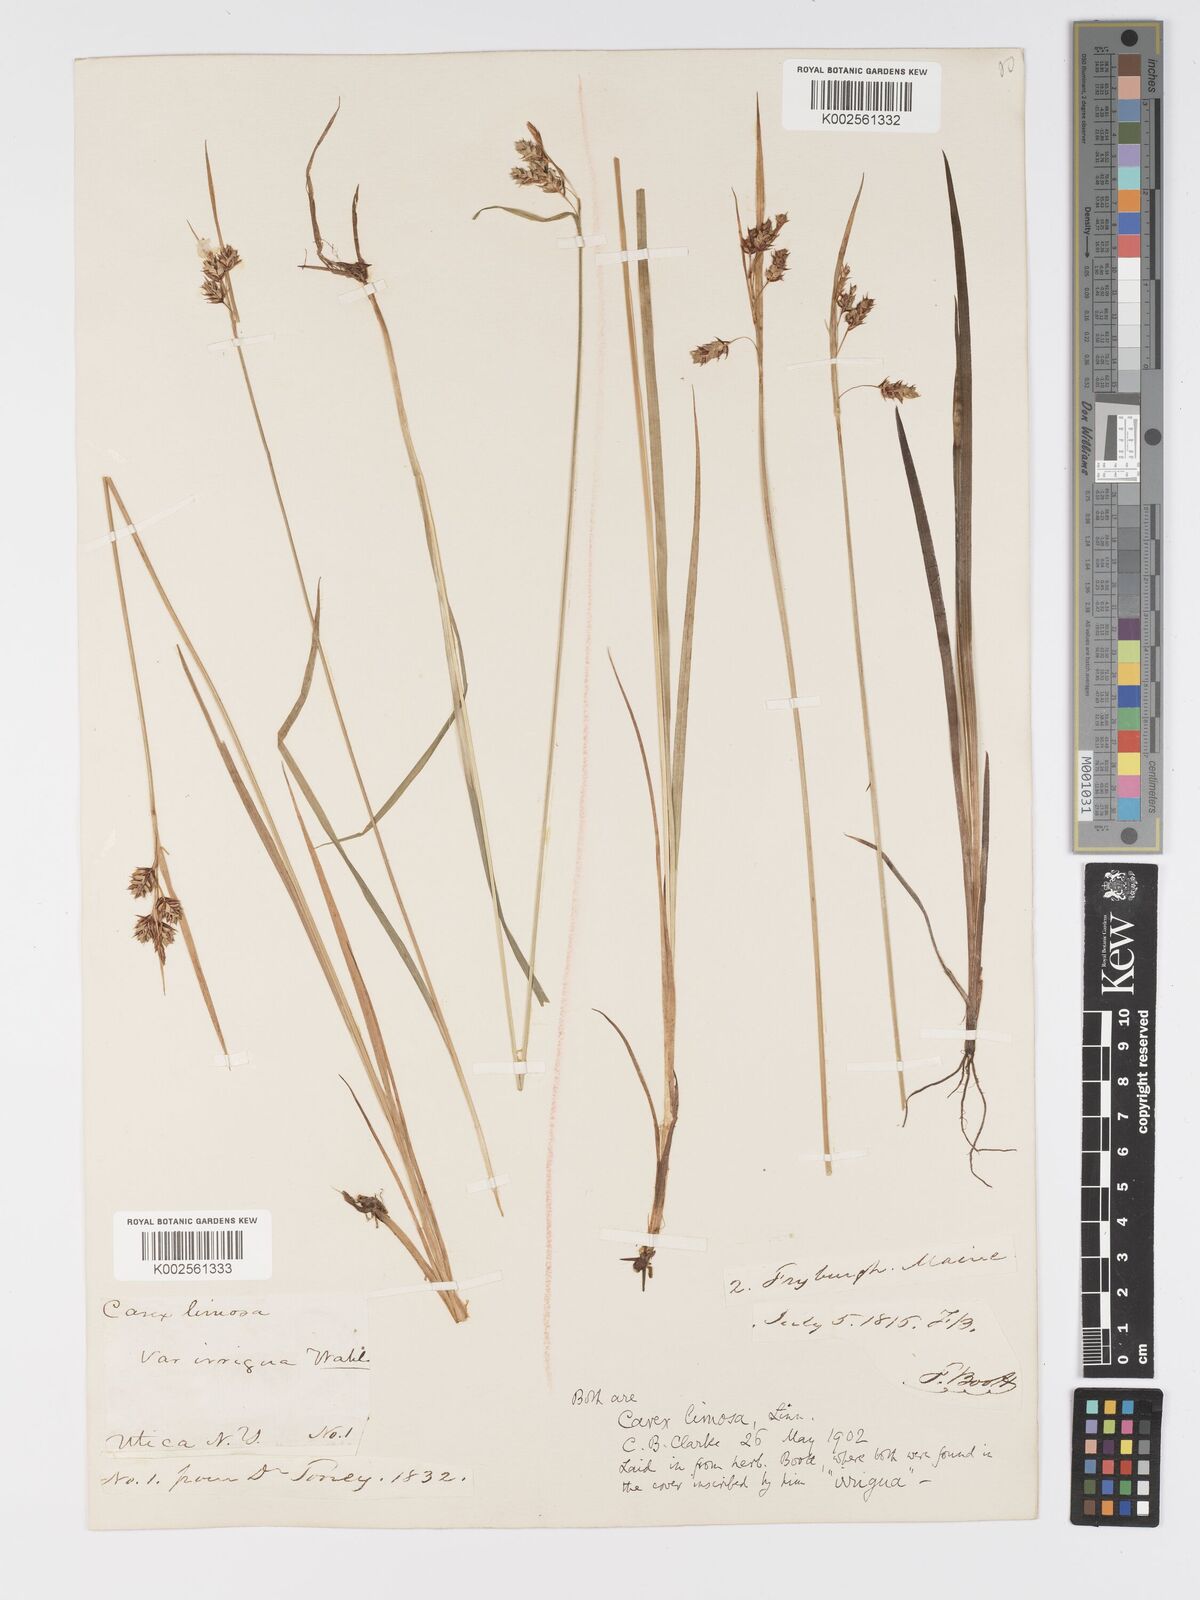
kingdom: Plantae
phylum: Tracheophyta
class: Liliopsida
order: Poales
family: Cyperaceae
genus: Carex
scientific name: Carex magellanica
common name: Bog sedge
